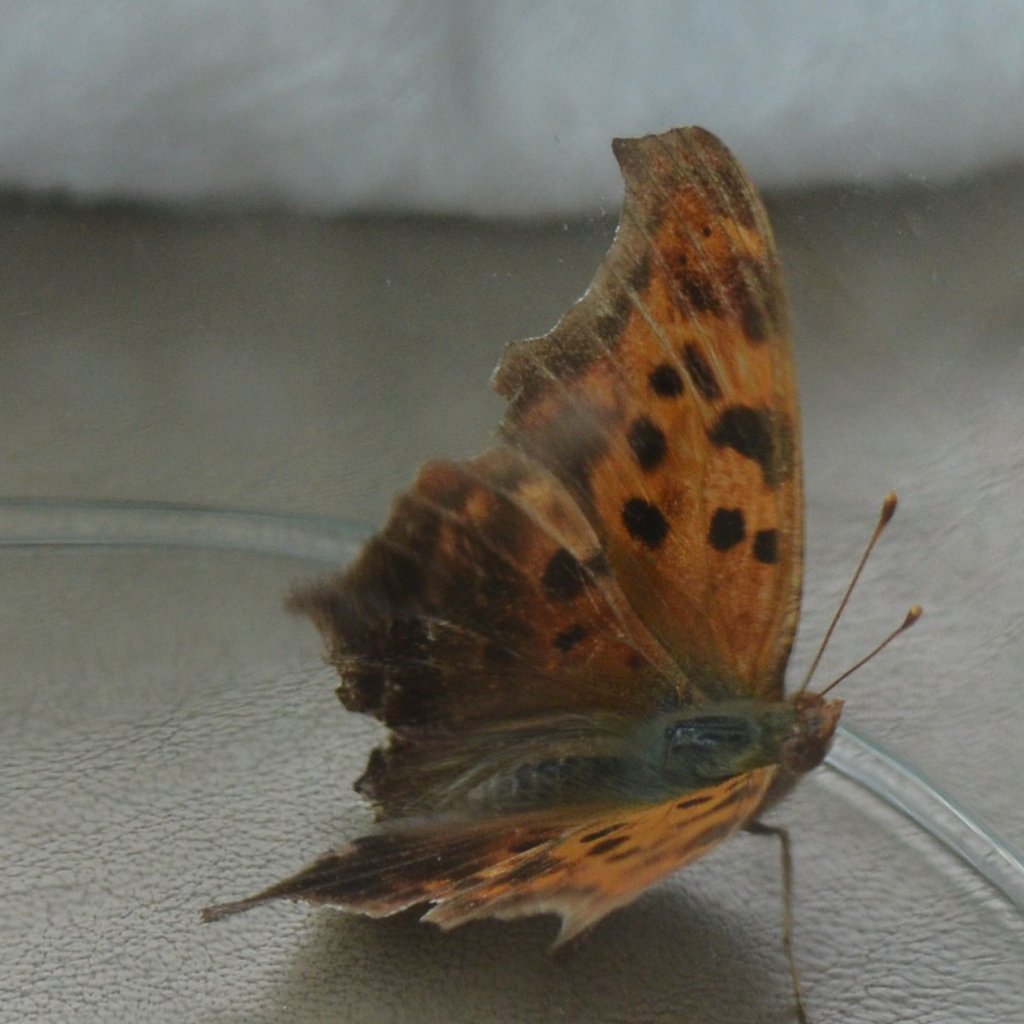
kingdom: Animalia
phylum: Arthropoda
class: Insecta
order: Lepidoptera
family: Nymphalidae
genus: Polygonia
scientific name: Polygonia interrogationis
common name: Question Mark
